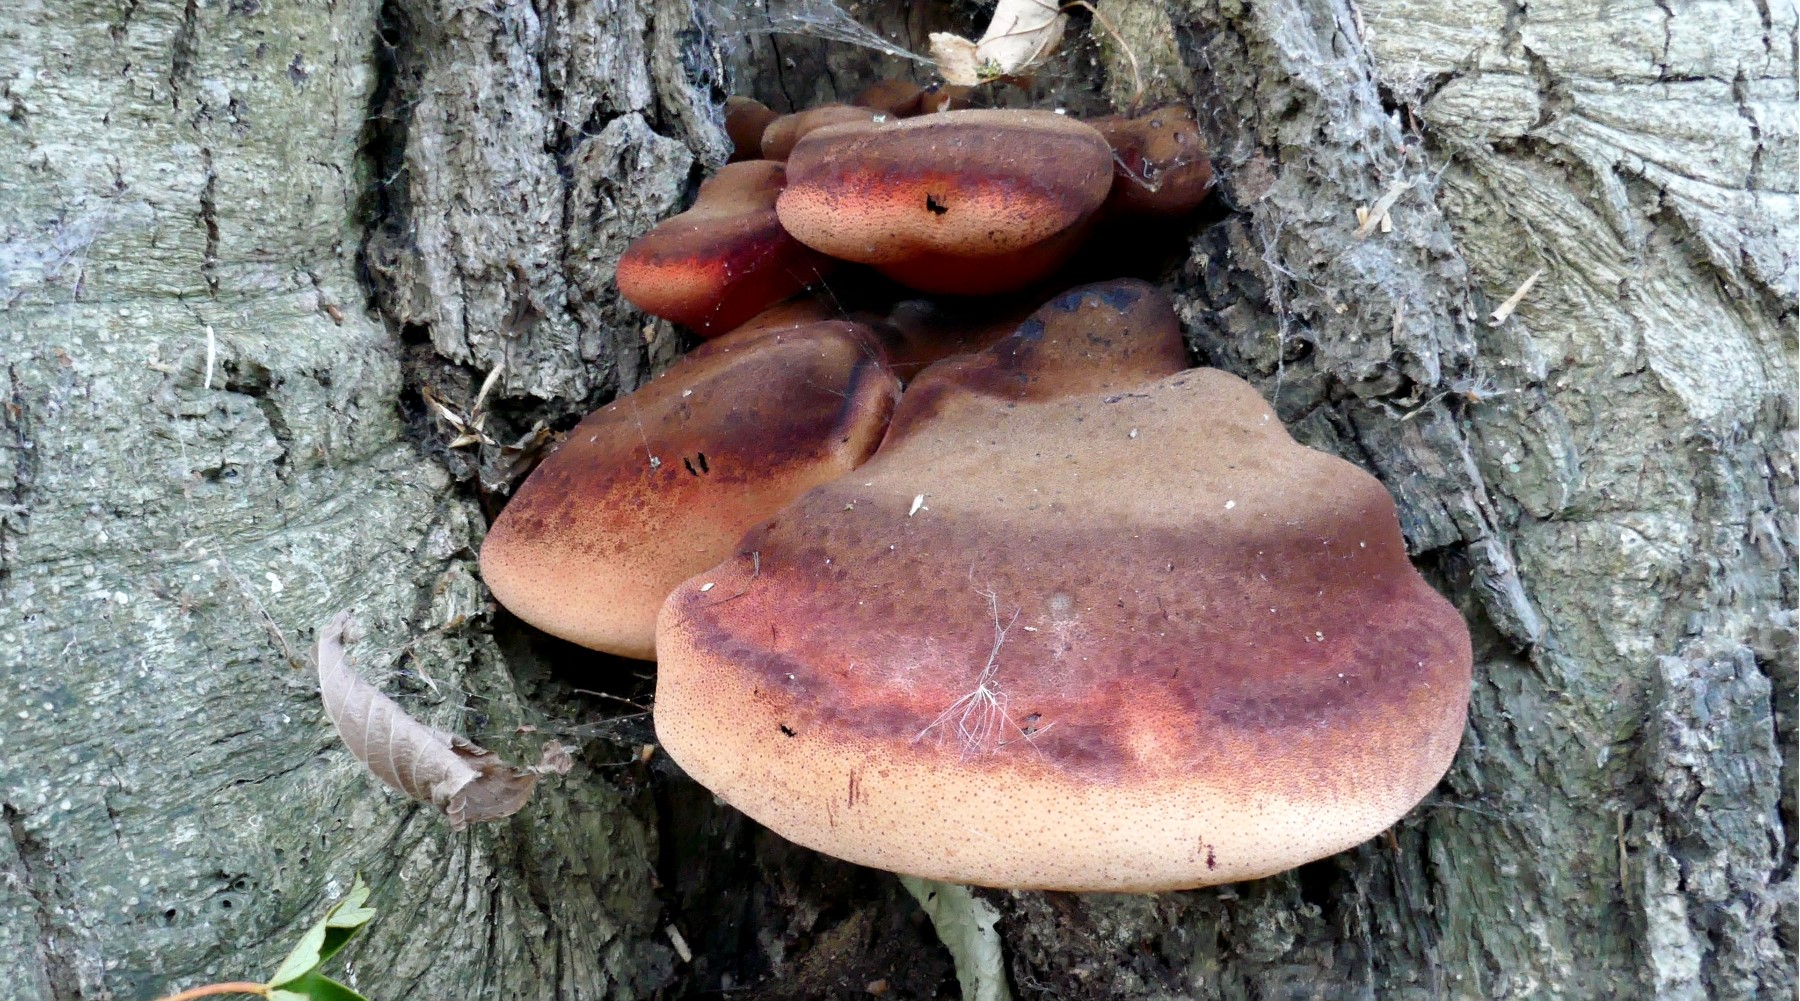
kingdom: Fungi
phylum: Basidiomycota
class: Agaricomycetes
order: Agaricales
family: Fistulinaceae
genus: Fistulina
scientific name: Fistulina hepatica
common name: oksetunge
